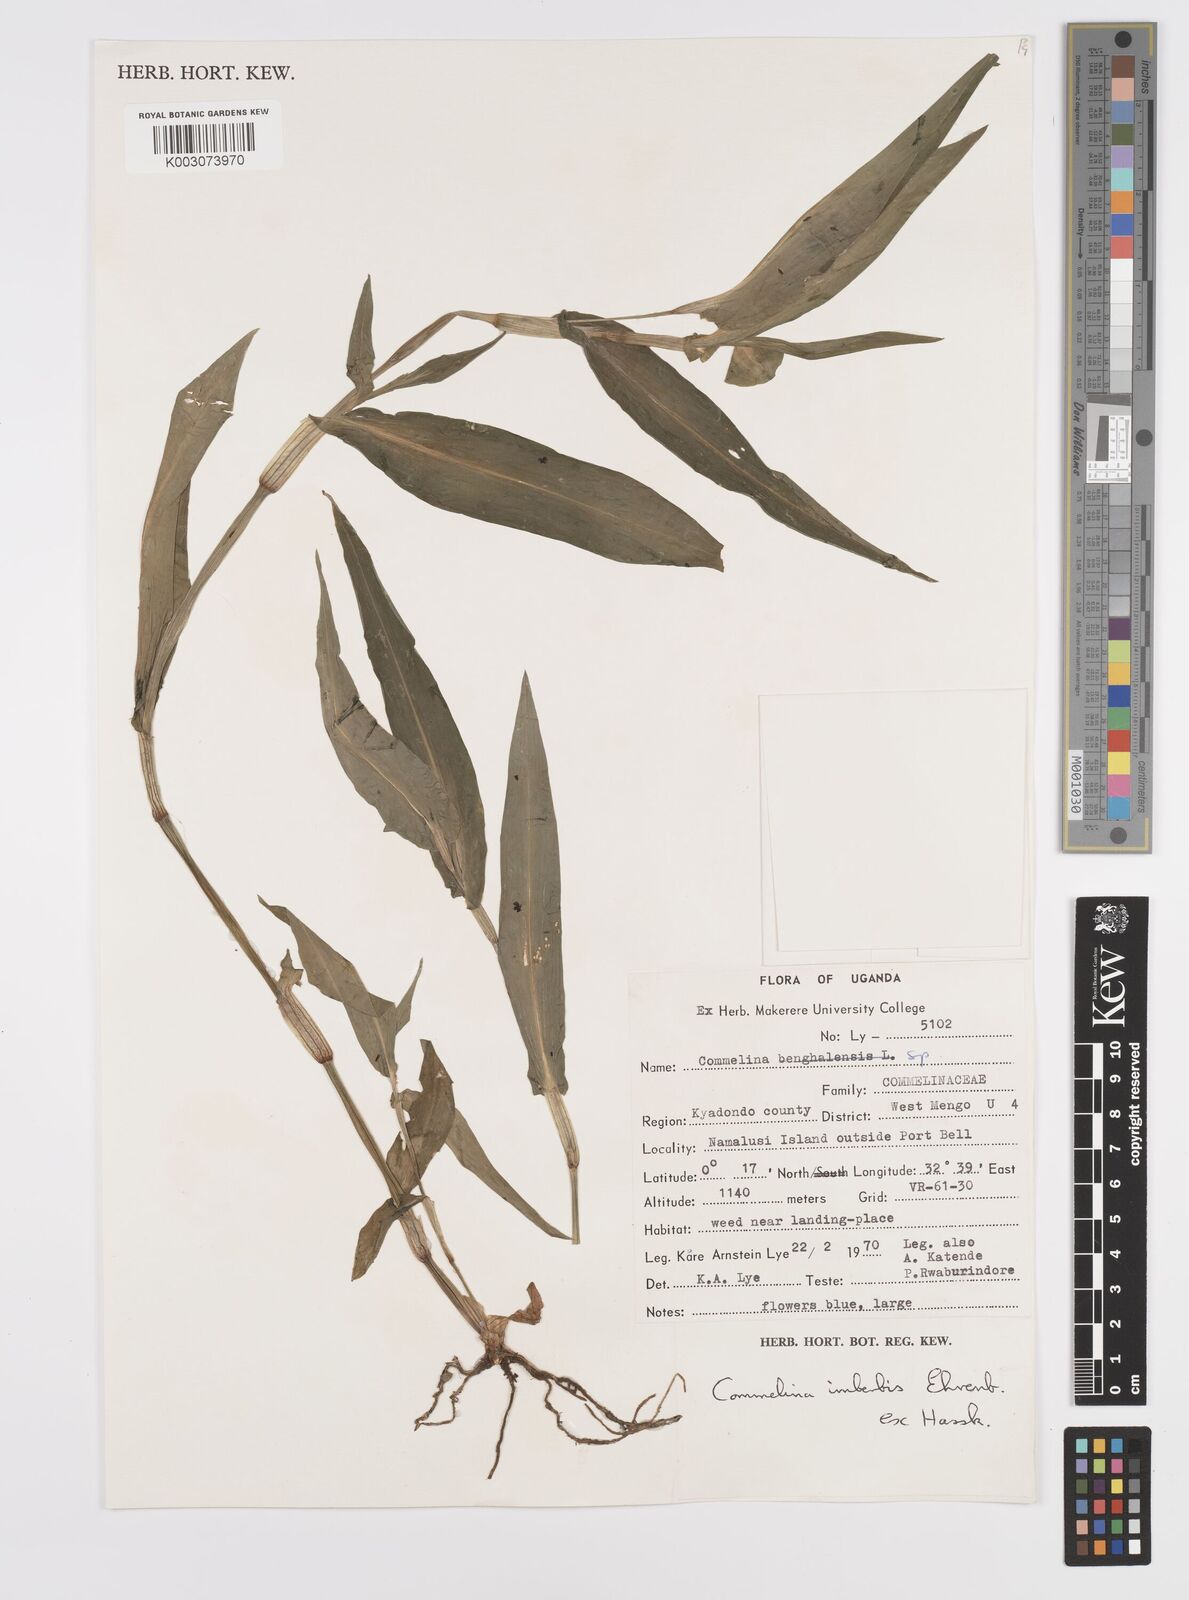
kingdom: Plantae
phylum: Tracheophyta
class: Liliopsida
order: Commelinales
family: Commelinaceae
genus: Commelina
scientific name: Commelina imberbis
